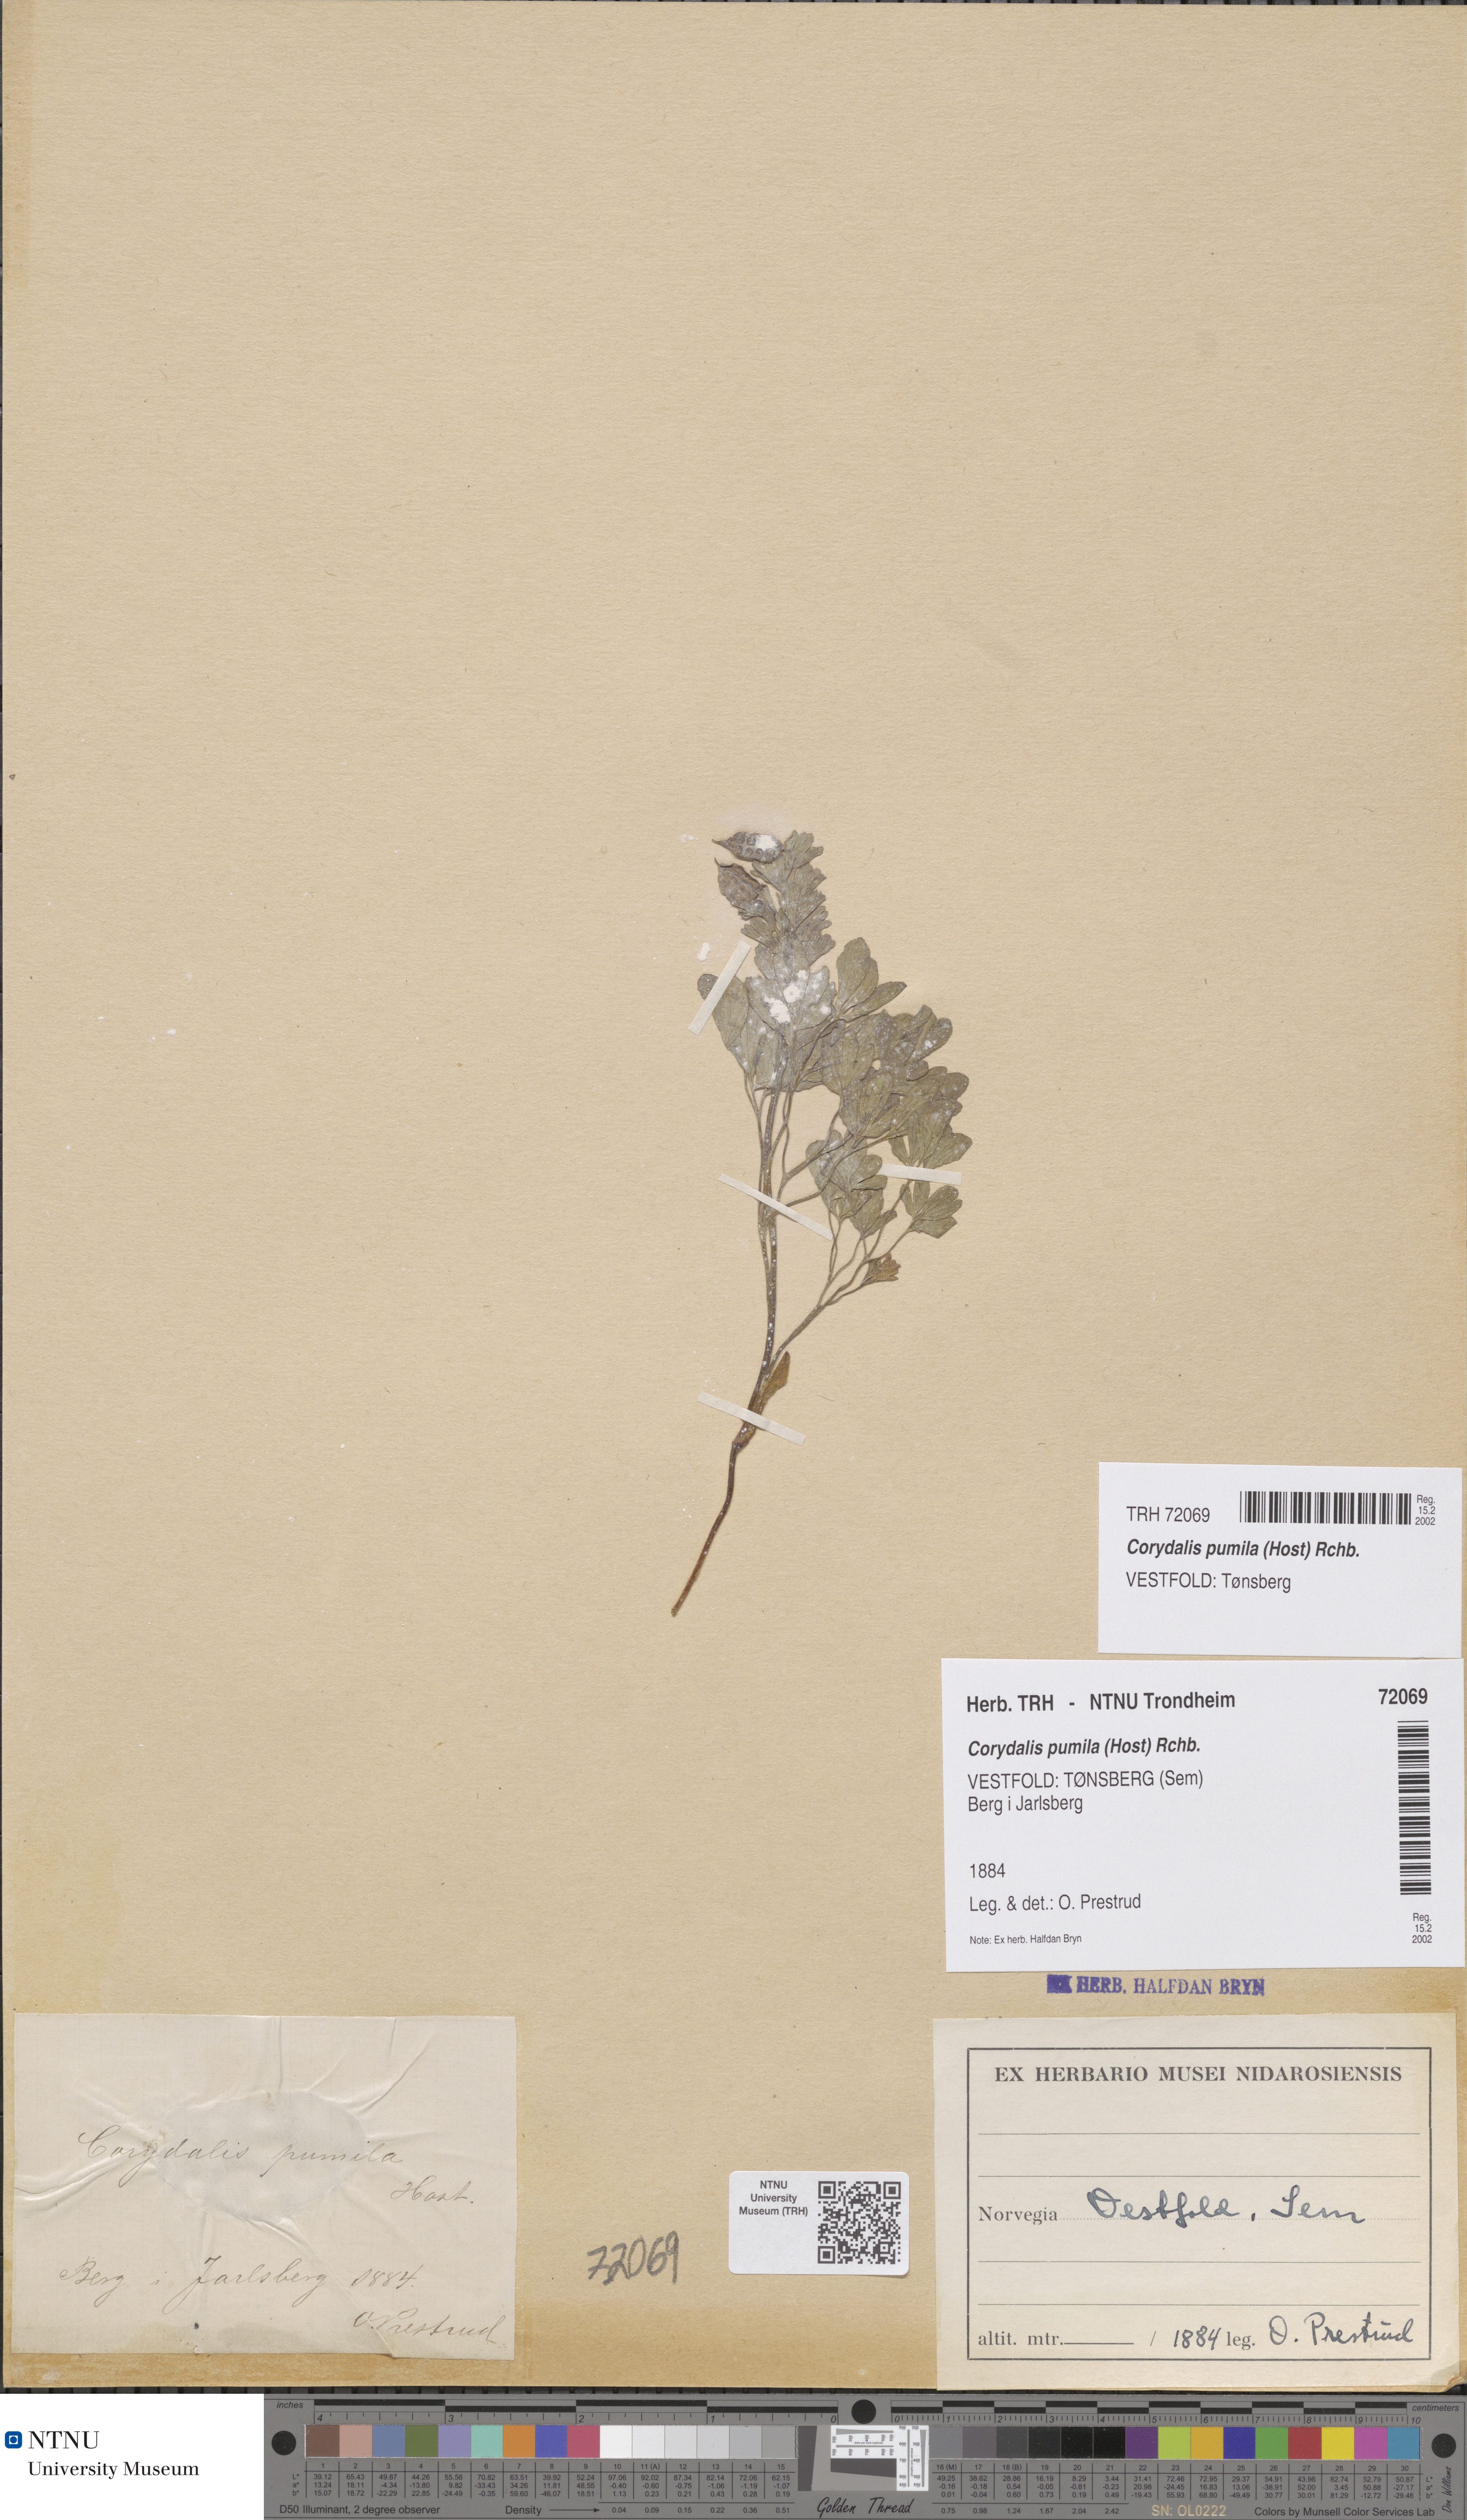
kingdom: Plantae
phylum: Tracheophyta
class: Magnoliopsida
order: Ranunculales
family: Papaveraceae
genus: Corydalis
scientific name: Corydalis pumila
